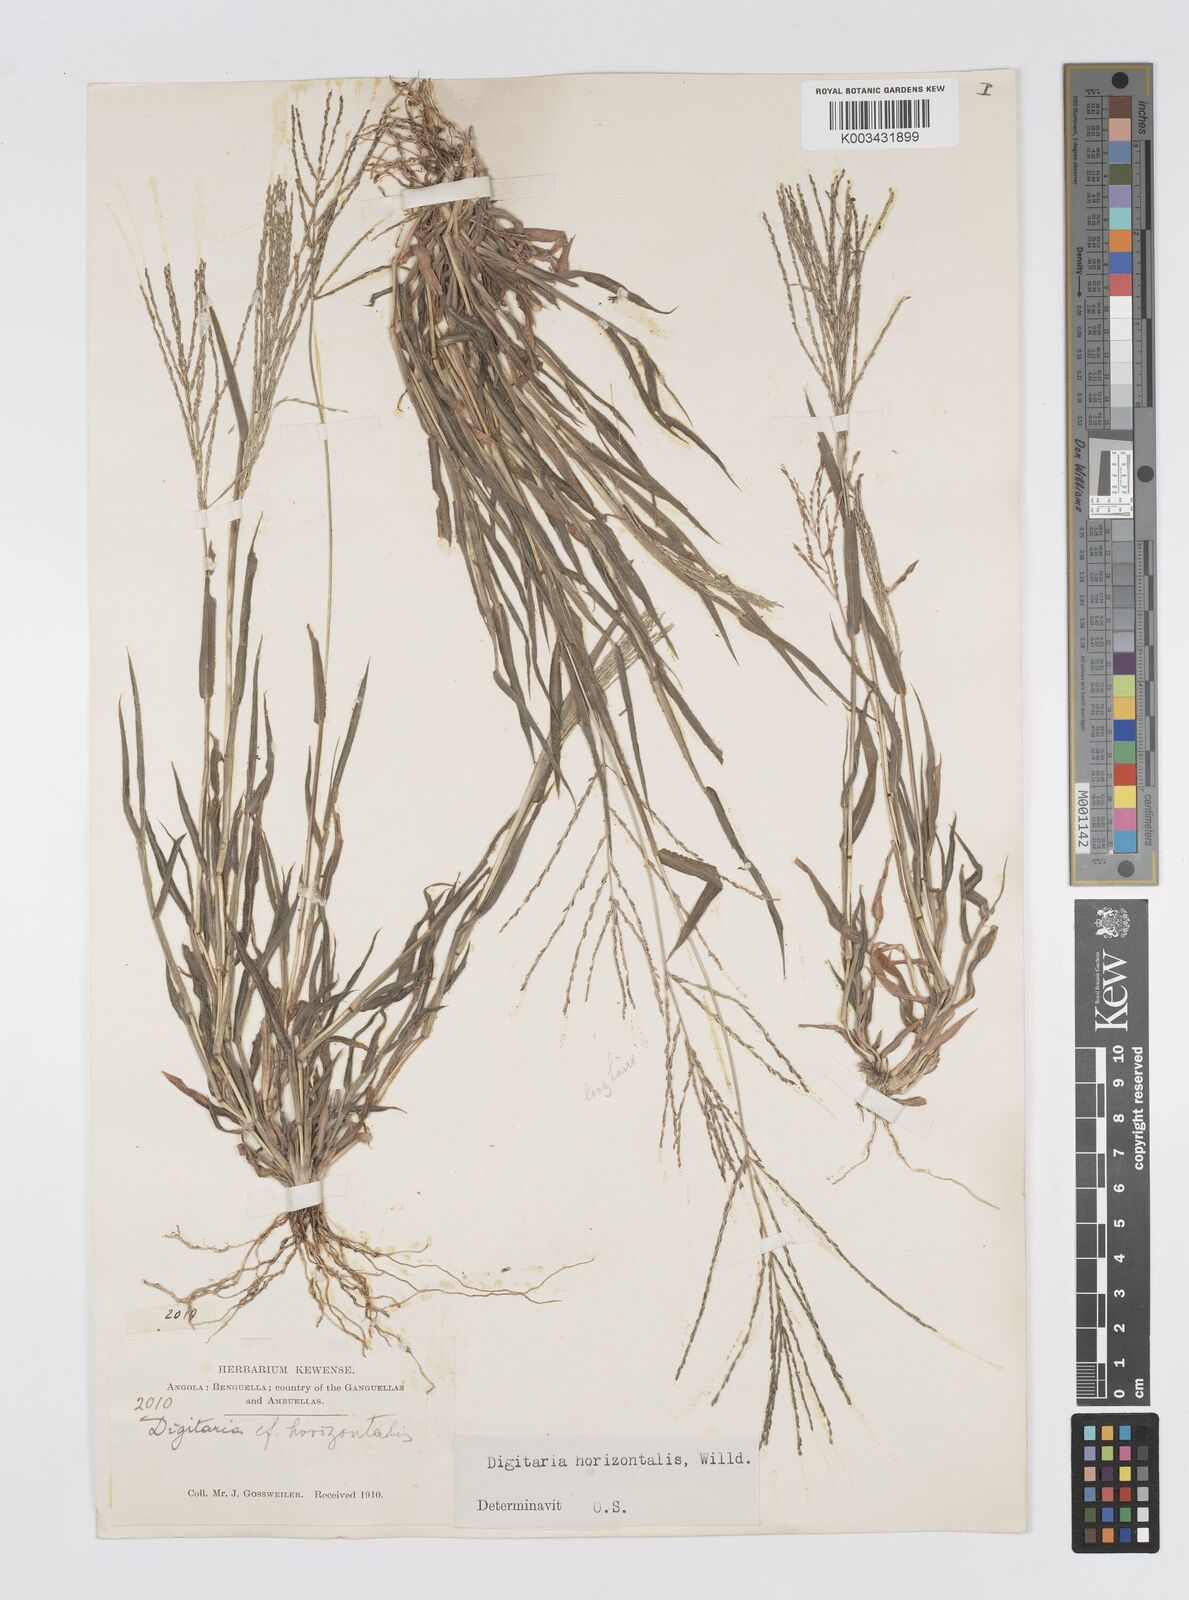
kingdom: Plantae
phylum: Tracheophyta
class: Liliopsida
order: Poales
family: Poaceae
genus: Digitaria
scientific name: Digitaria velutina
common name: Long-plume finger grass
